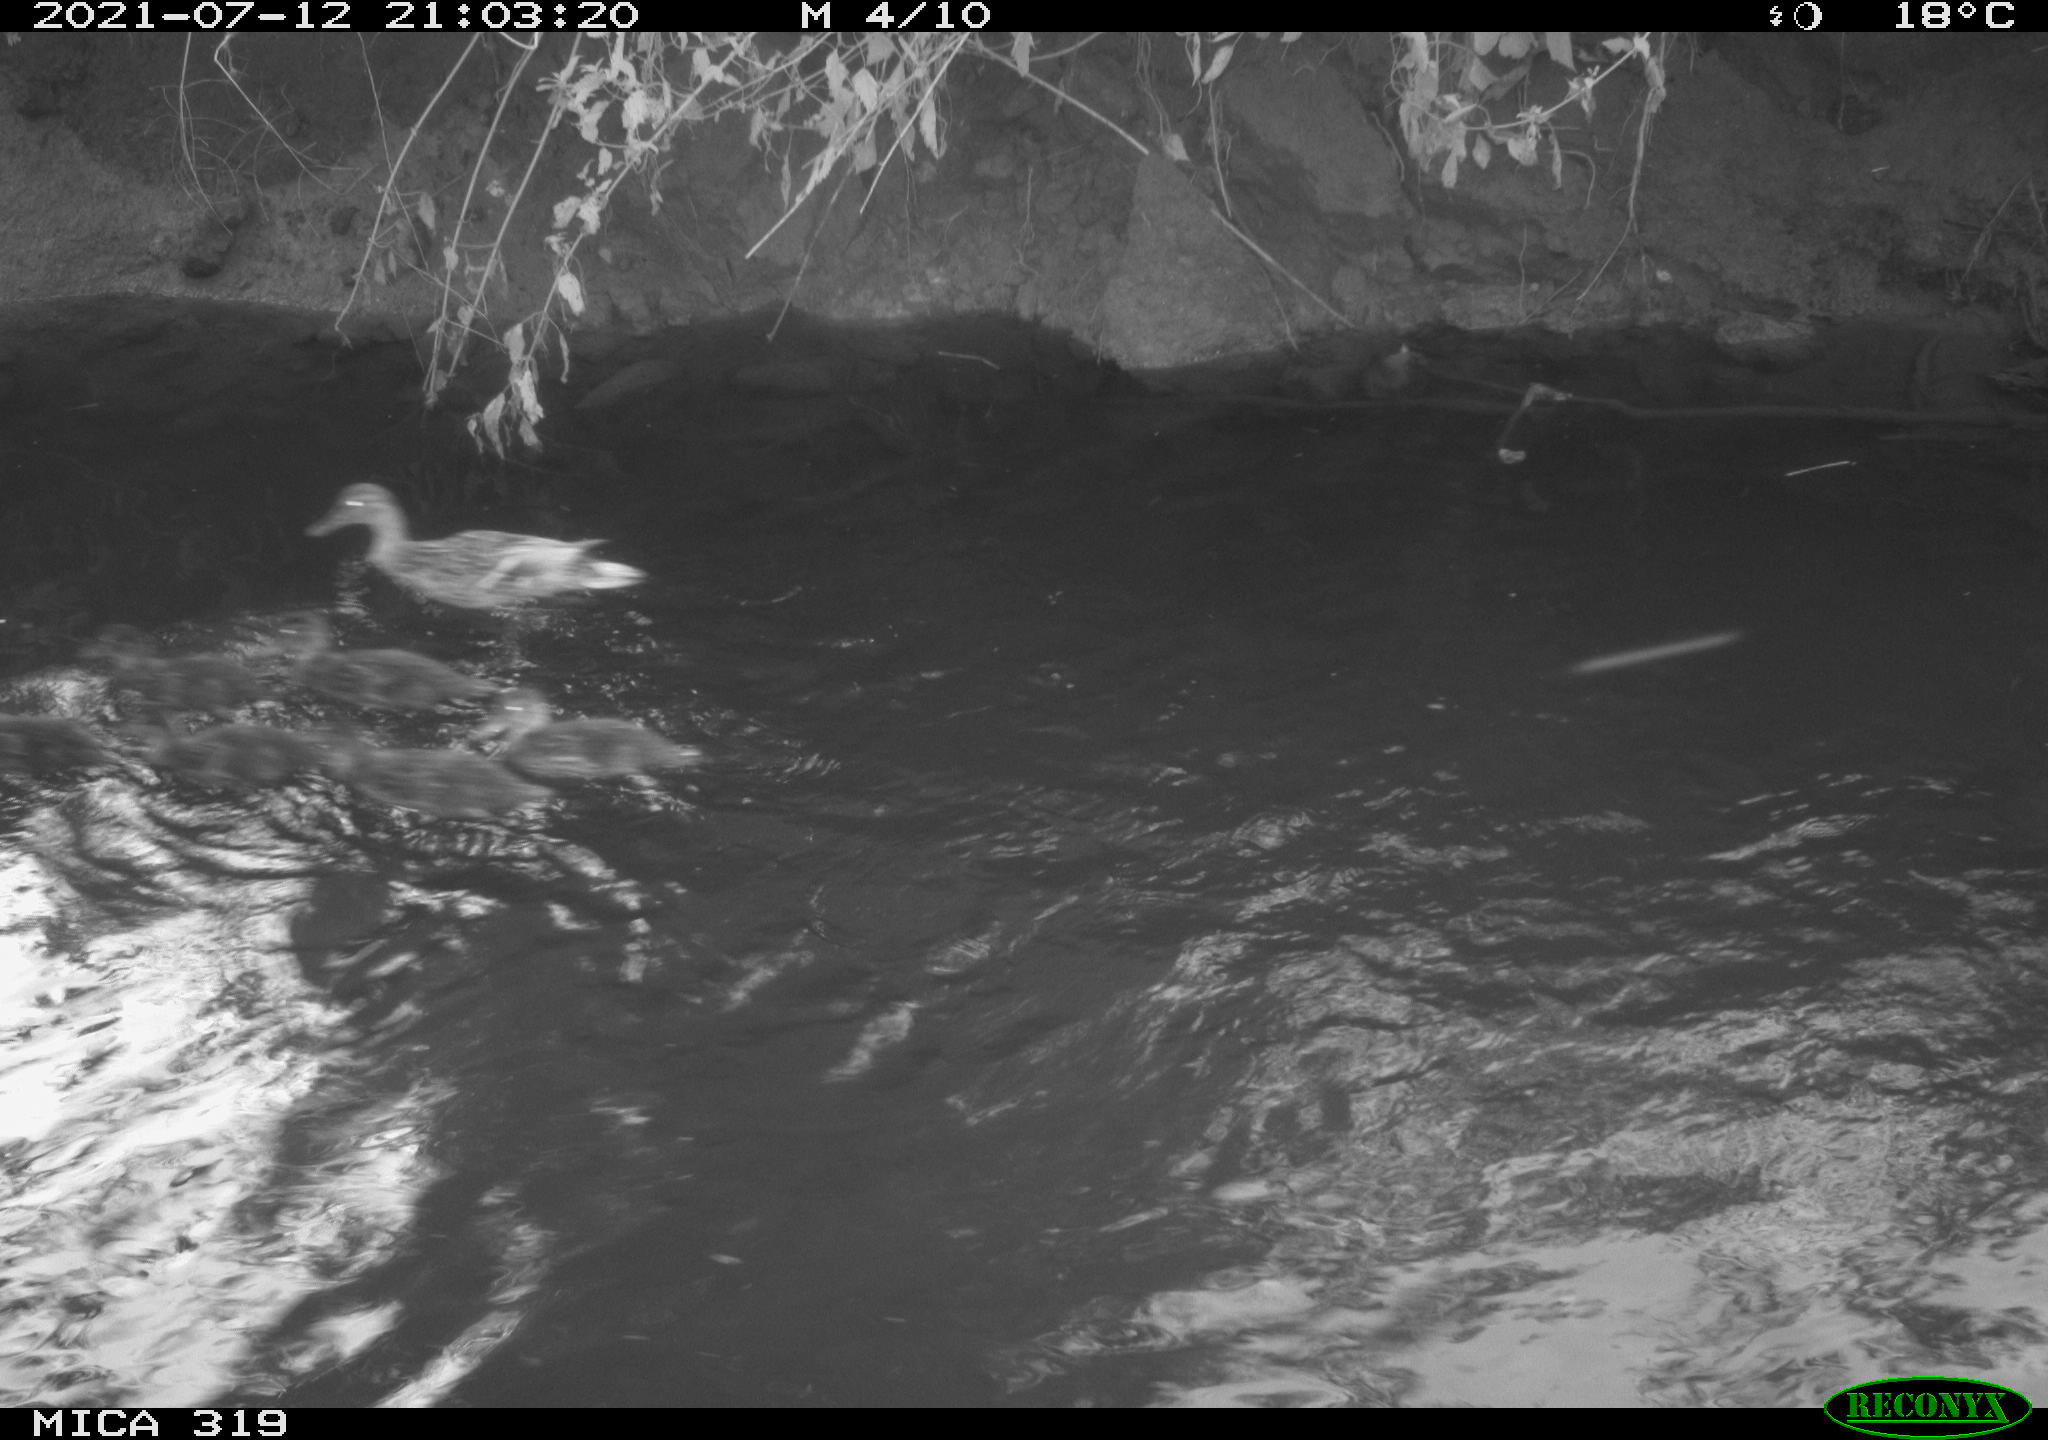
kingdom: Animalia
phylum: Chordata
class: Aves
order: Anseriformes
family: Anatidae
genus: Anas
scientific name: Anas platyrhynchos
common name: Mallard
